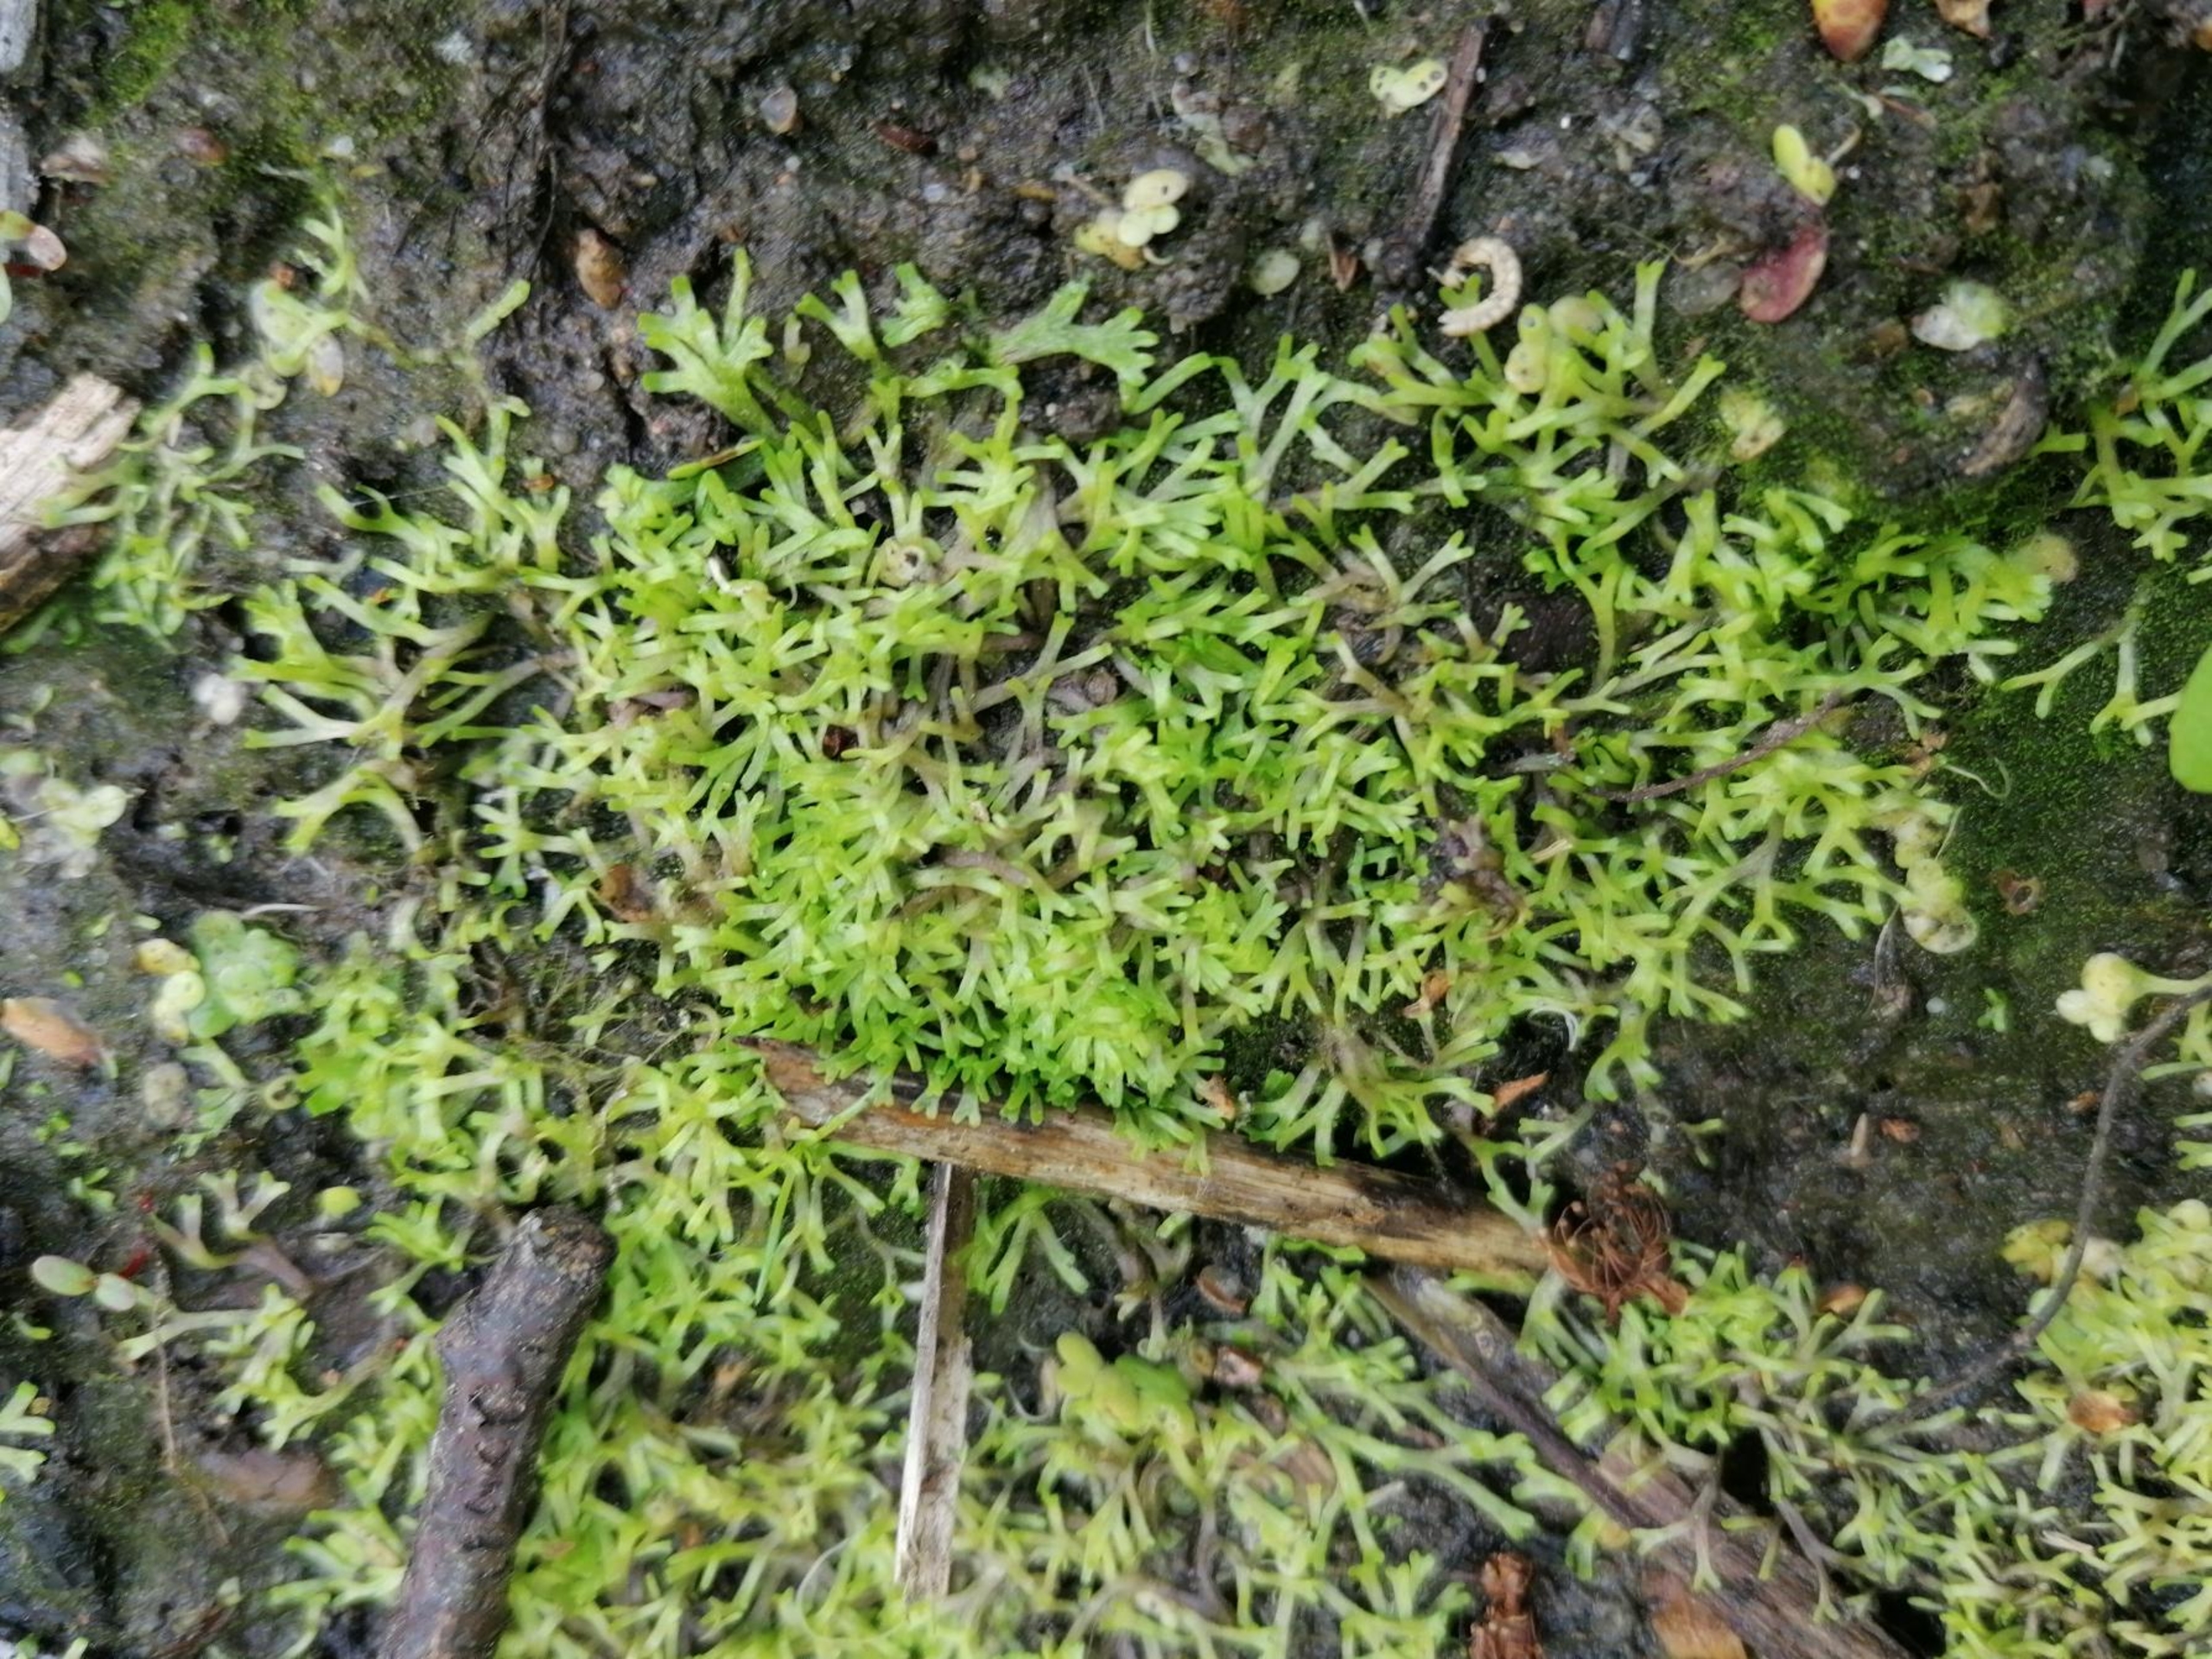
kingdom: Plantae
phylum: Marchantiophyta
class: Marchantiopsida
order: Marchantiales
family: Ricciaceae
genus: Riccia
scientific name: Riccia fluitans
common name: Svømmende stjerneløv
